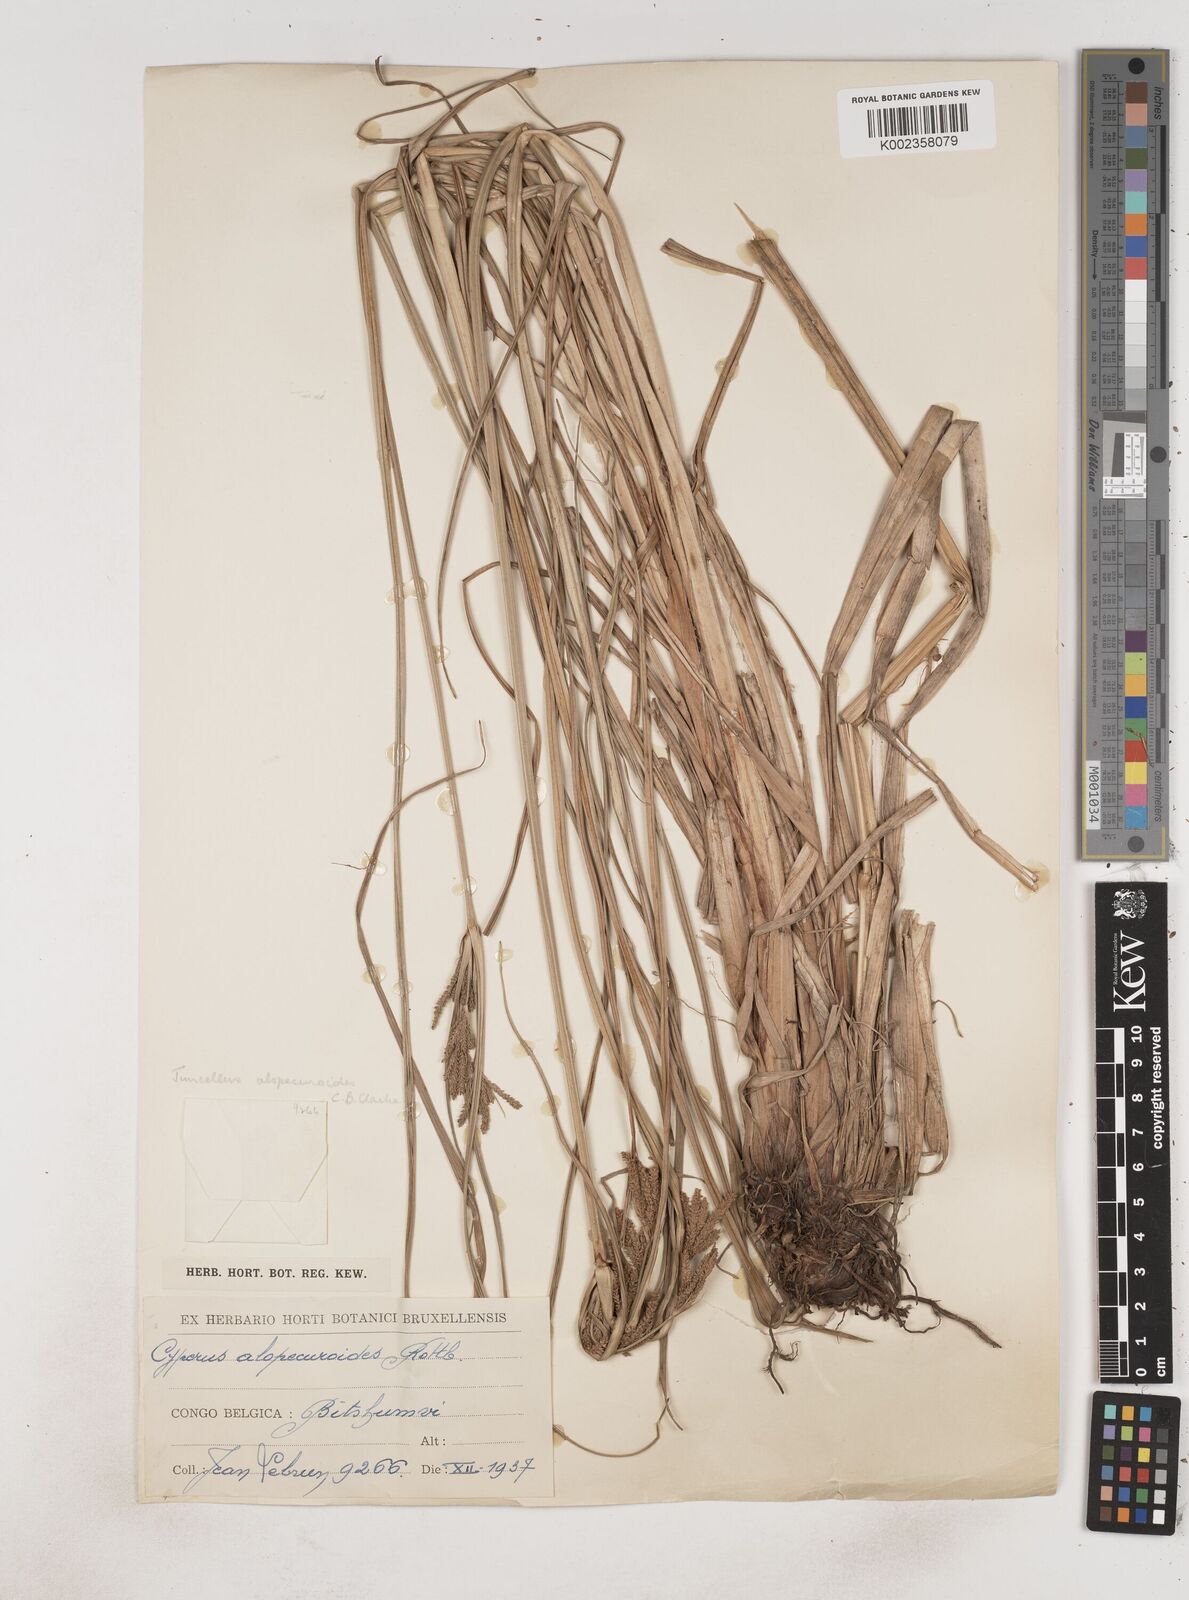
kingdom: Plantae
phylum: Tracheophyta
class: Liliopsida
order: Poales
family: Cyperaceae
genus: Cyperus
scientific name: Cyperus alopecuroides
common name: Foxtail flatsedge
